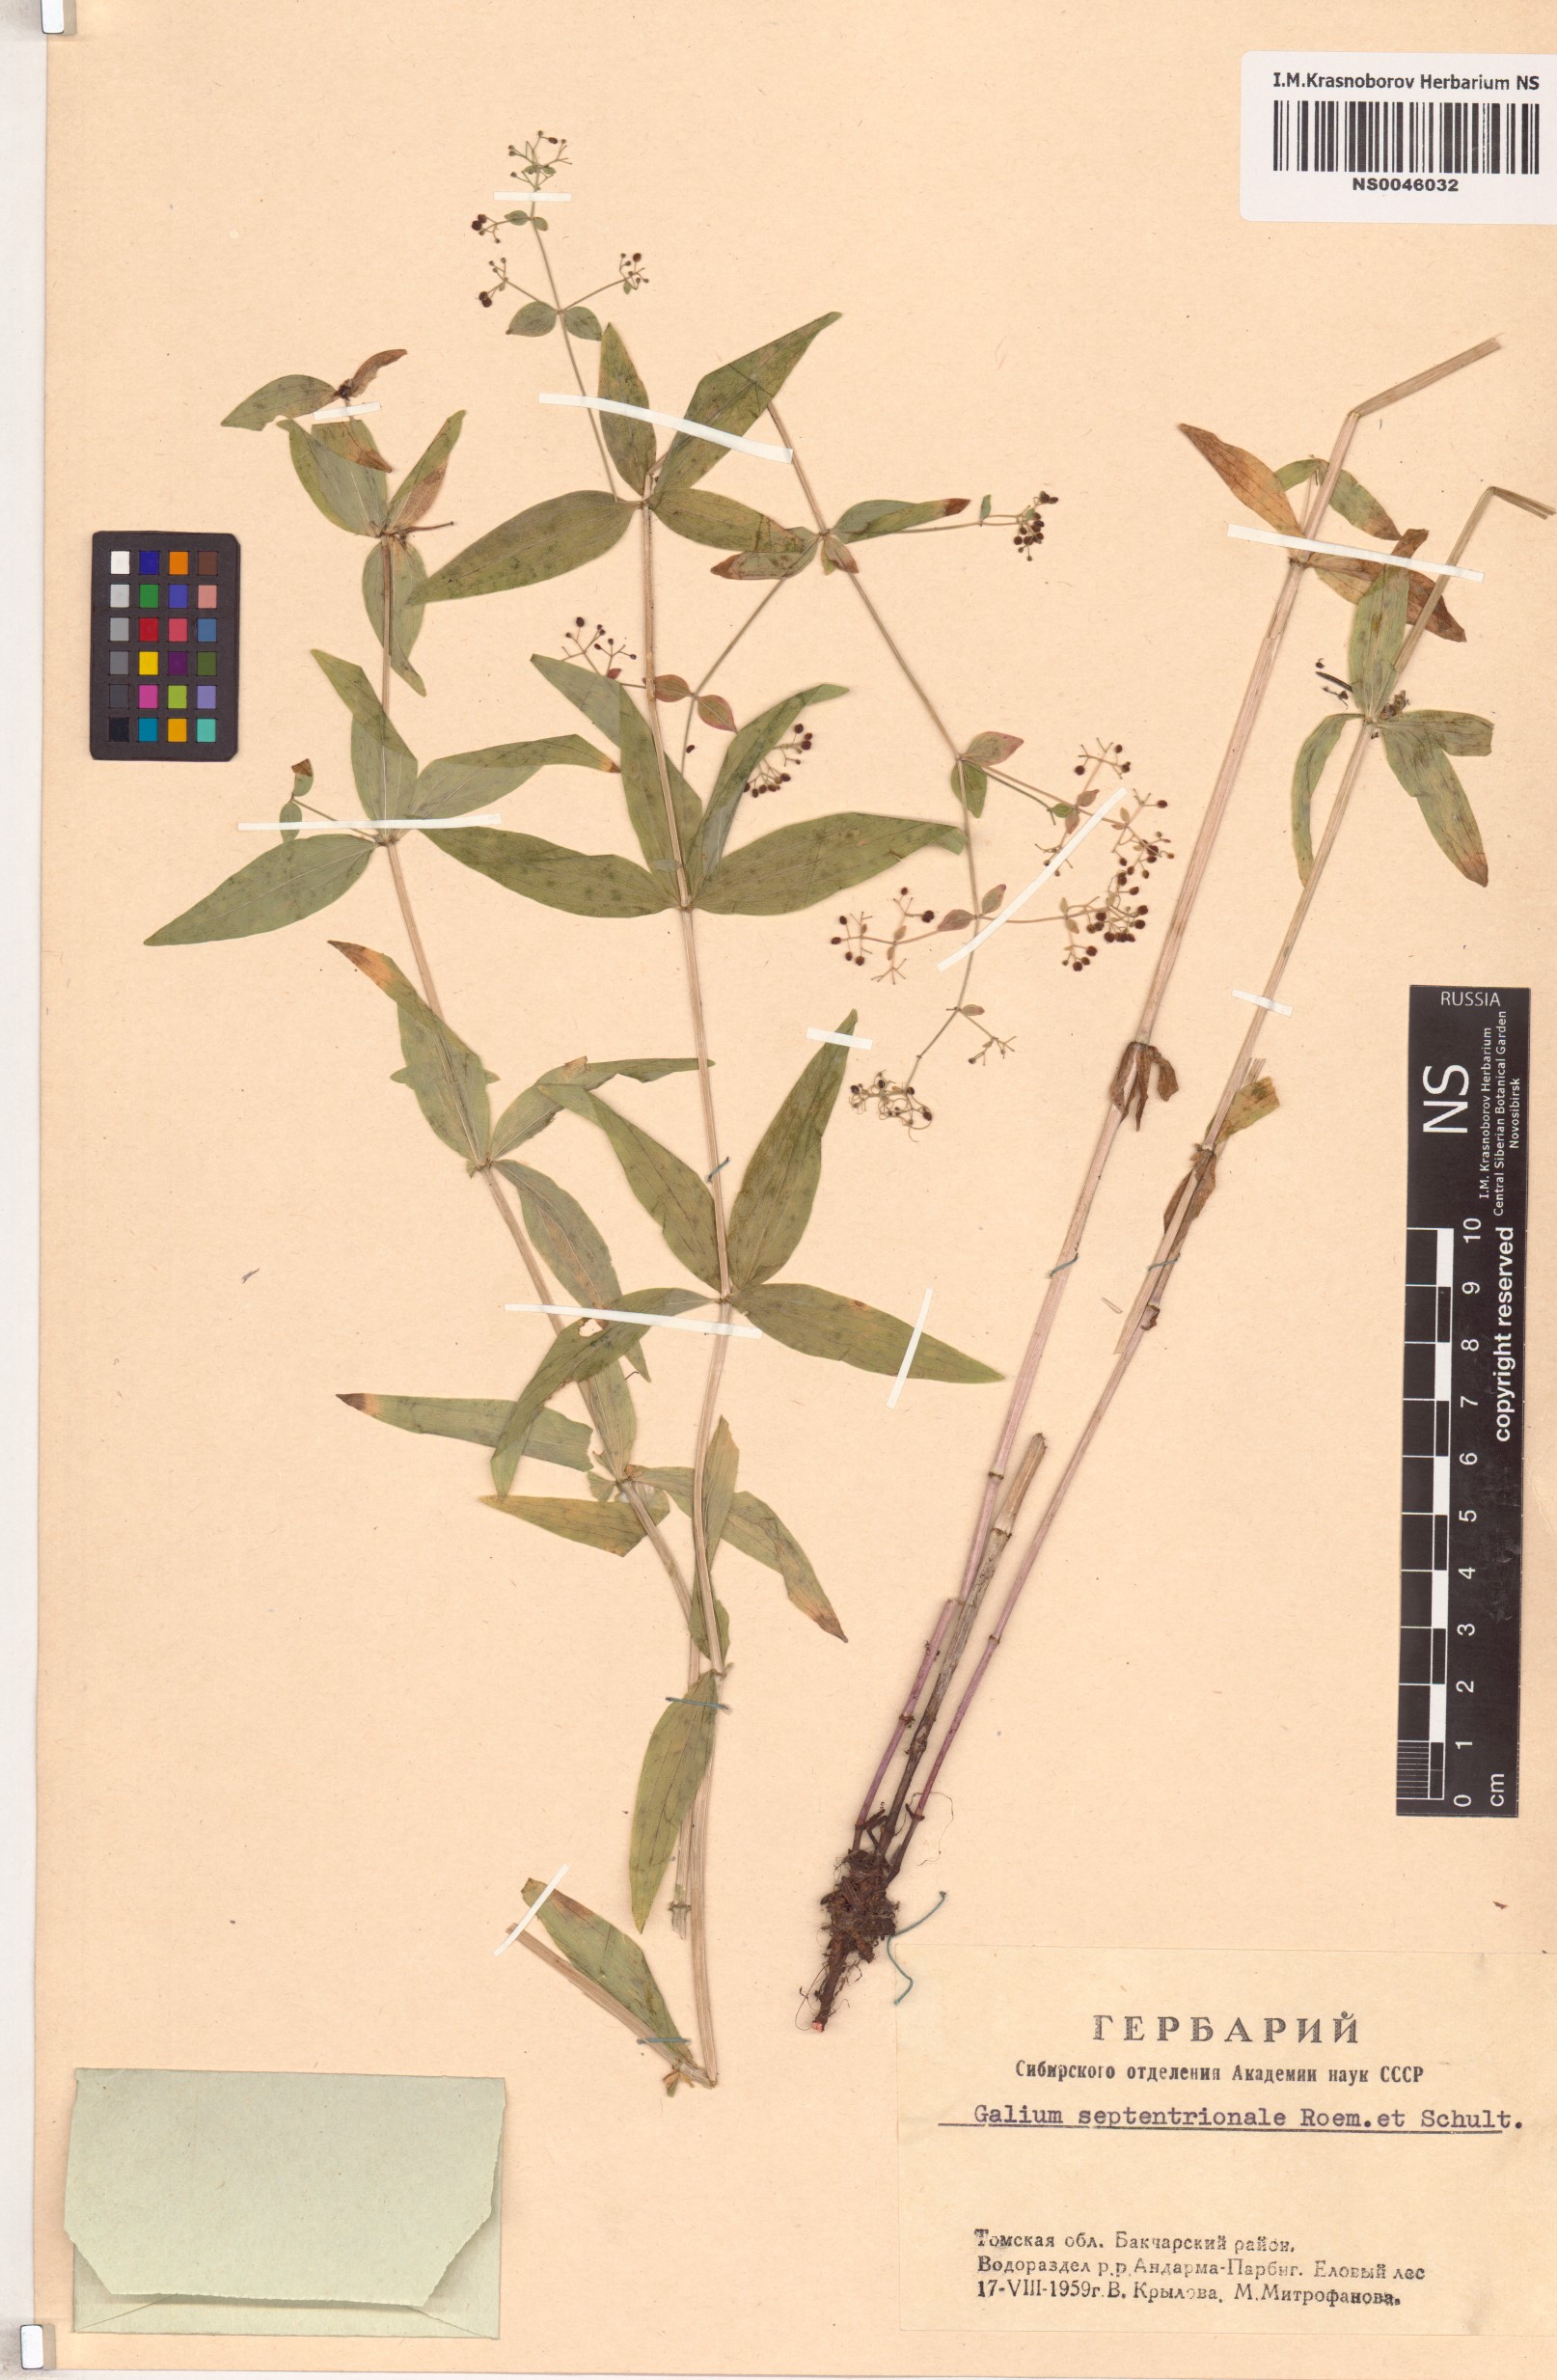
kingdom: Plantae
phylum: Tracheophyta
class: Magnoliopsida
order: Gentianales
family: Rubiaceae
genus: Galium
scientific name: Galium boreale
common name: Northern bedstraw
